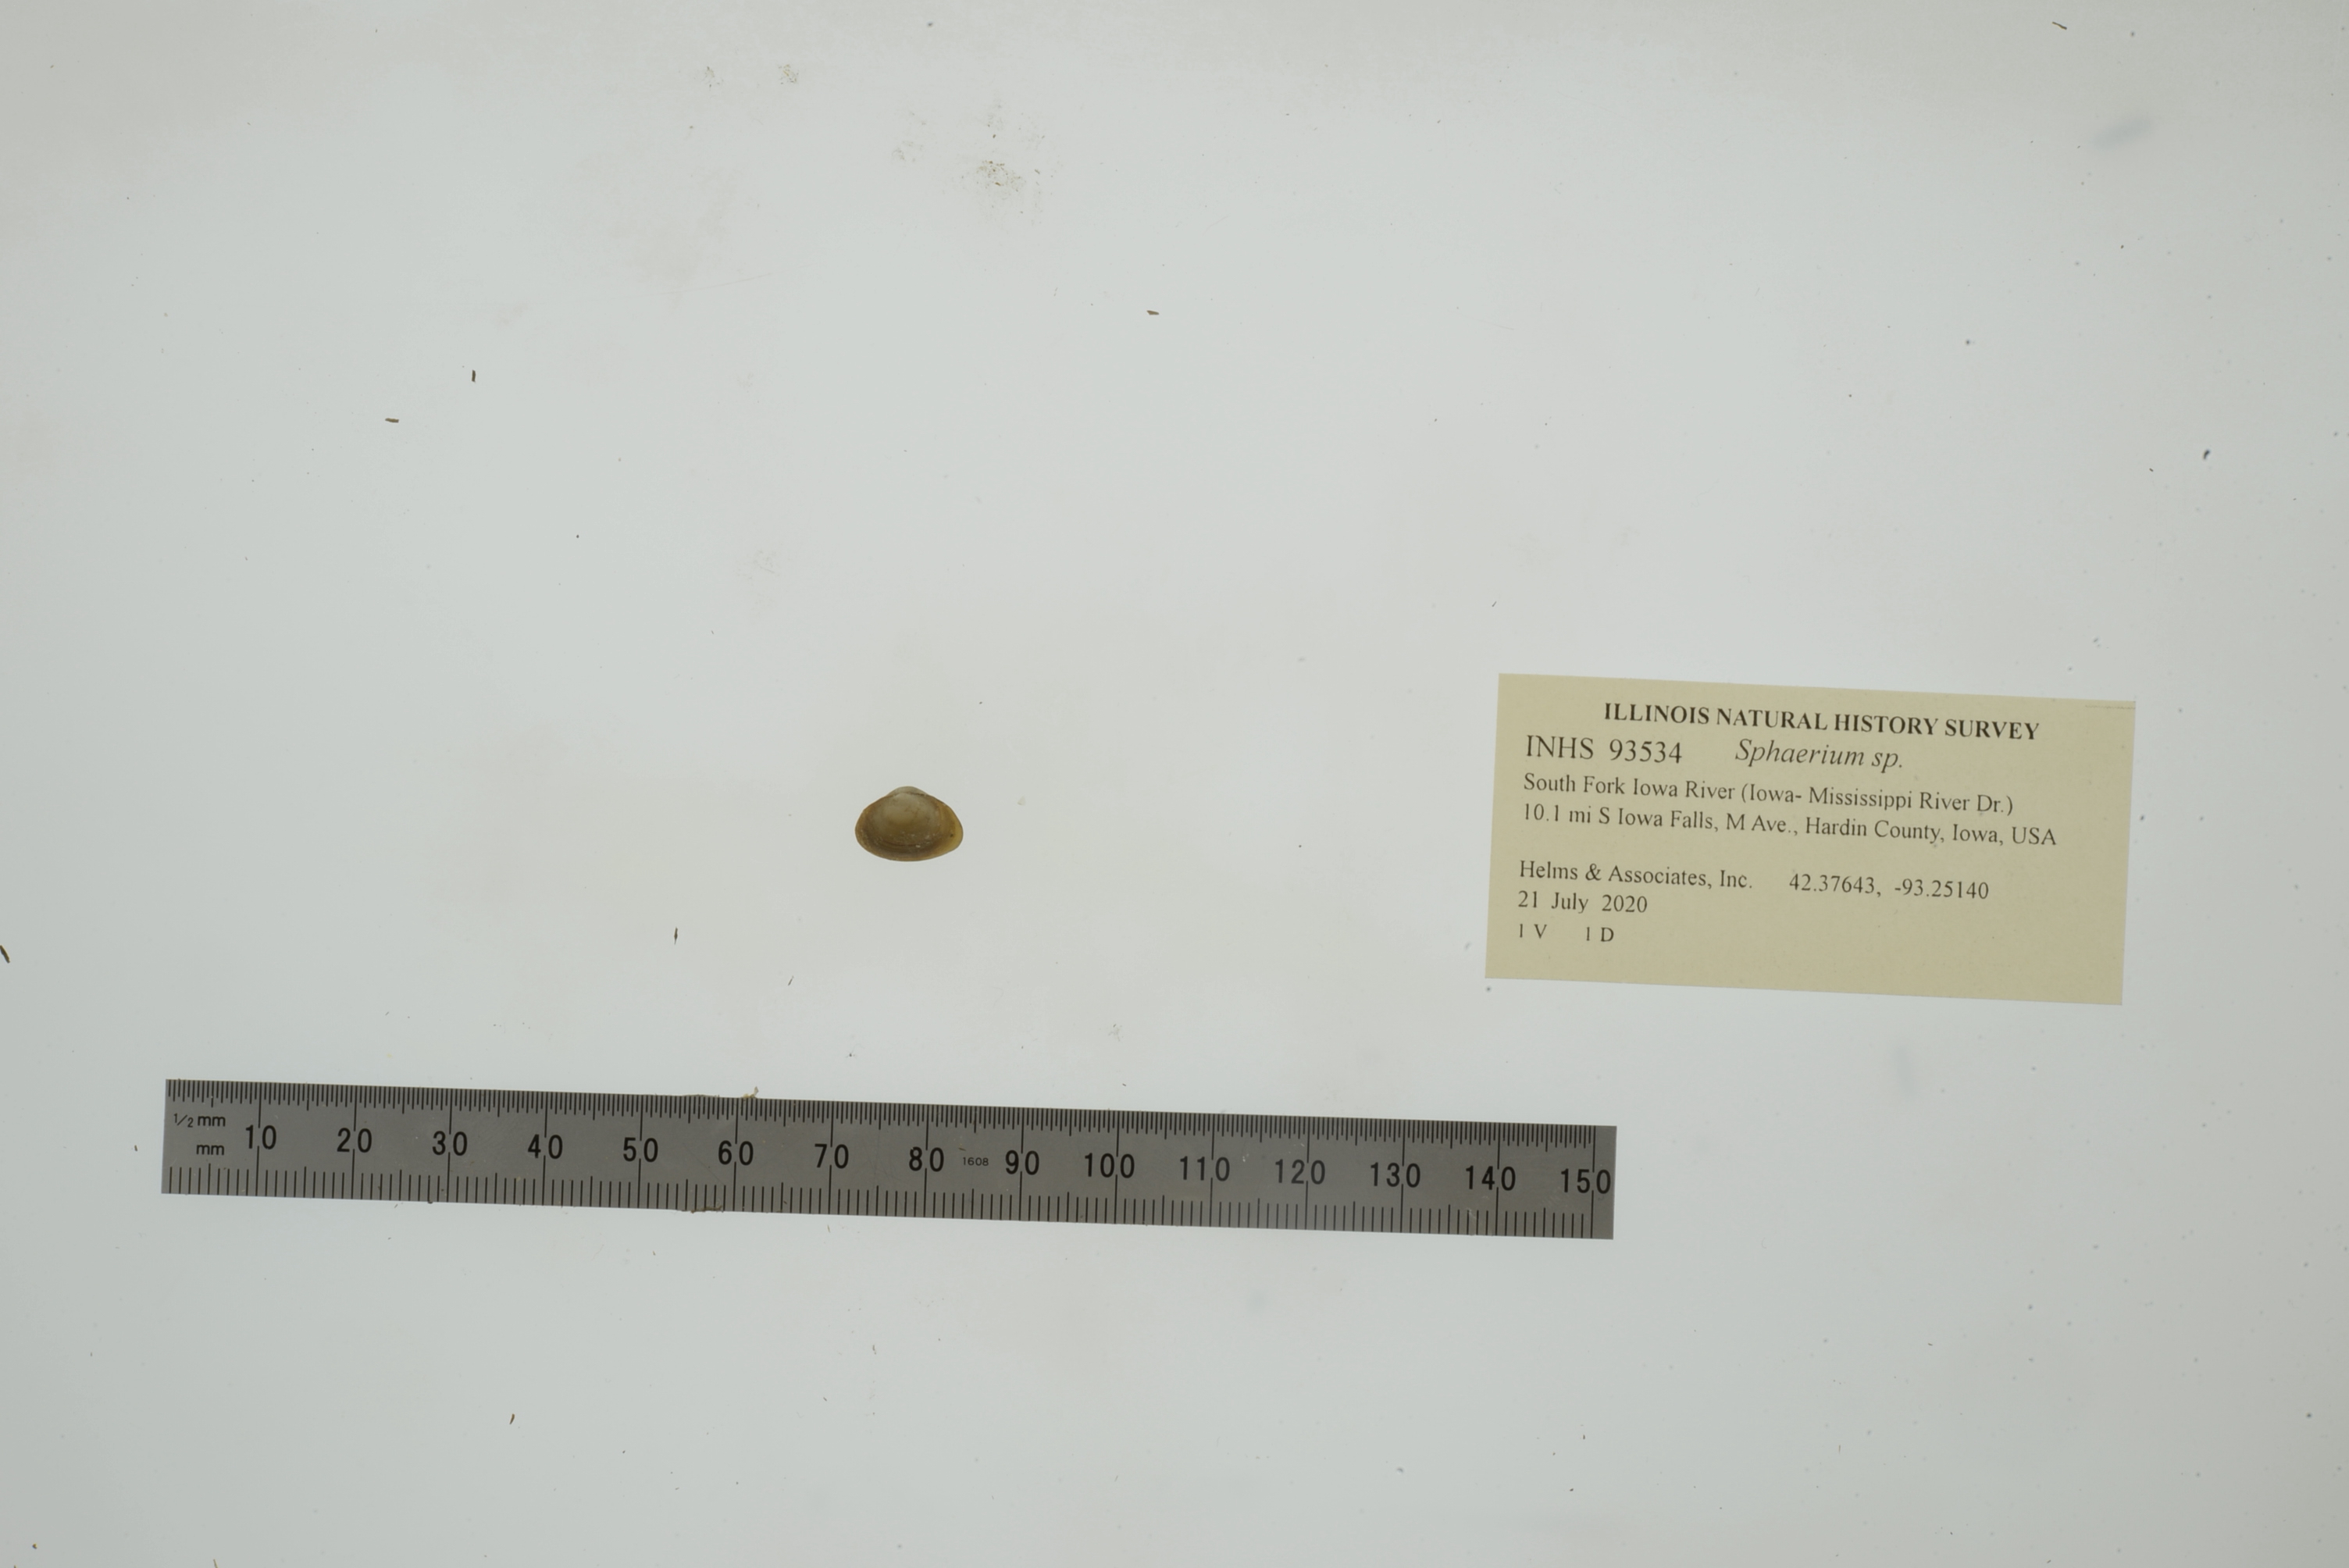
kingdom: Animalia
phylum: Mollusca
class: Bivalvia
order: Sphaeriida
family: Sphaeriidae
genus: Sphaerium
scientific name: Sphaerium
